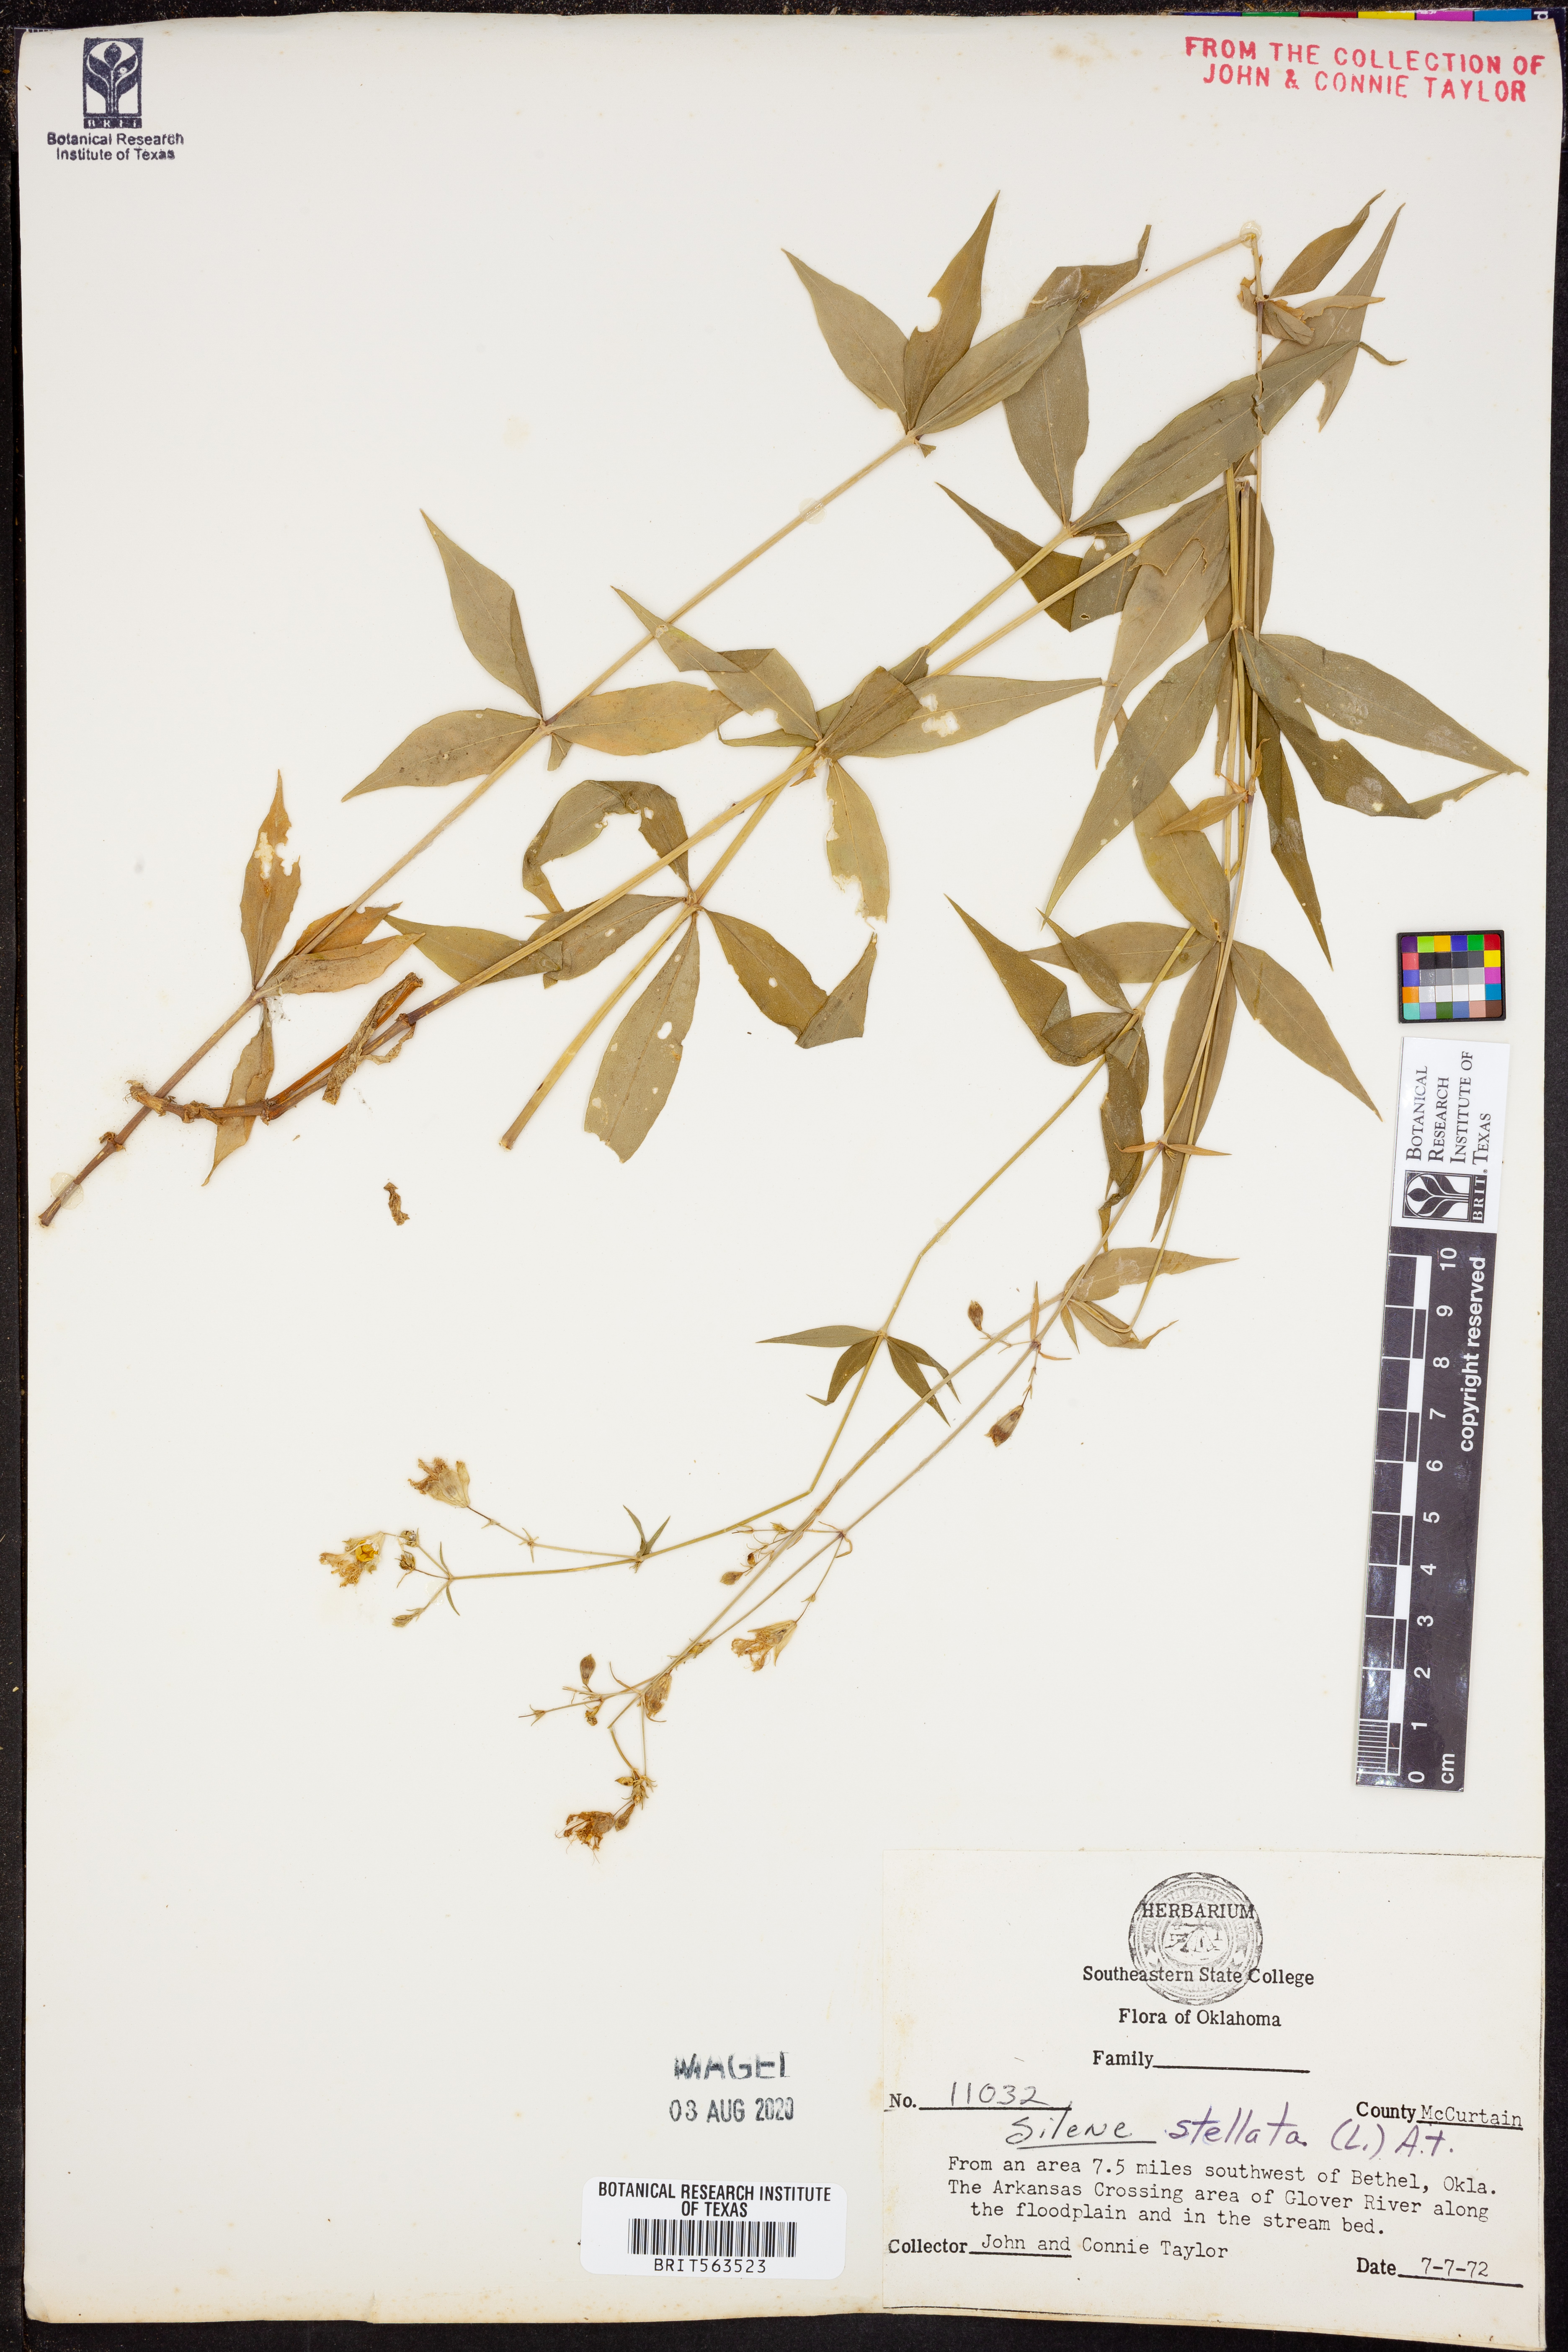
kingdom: Plantae
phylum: Tracheophyta
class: Magnoliopsida
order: Caryophyllales
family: Caryophyllaceae
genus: Silene
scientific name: Silene stellata
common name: Starry campion
